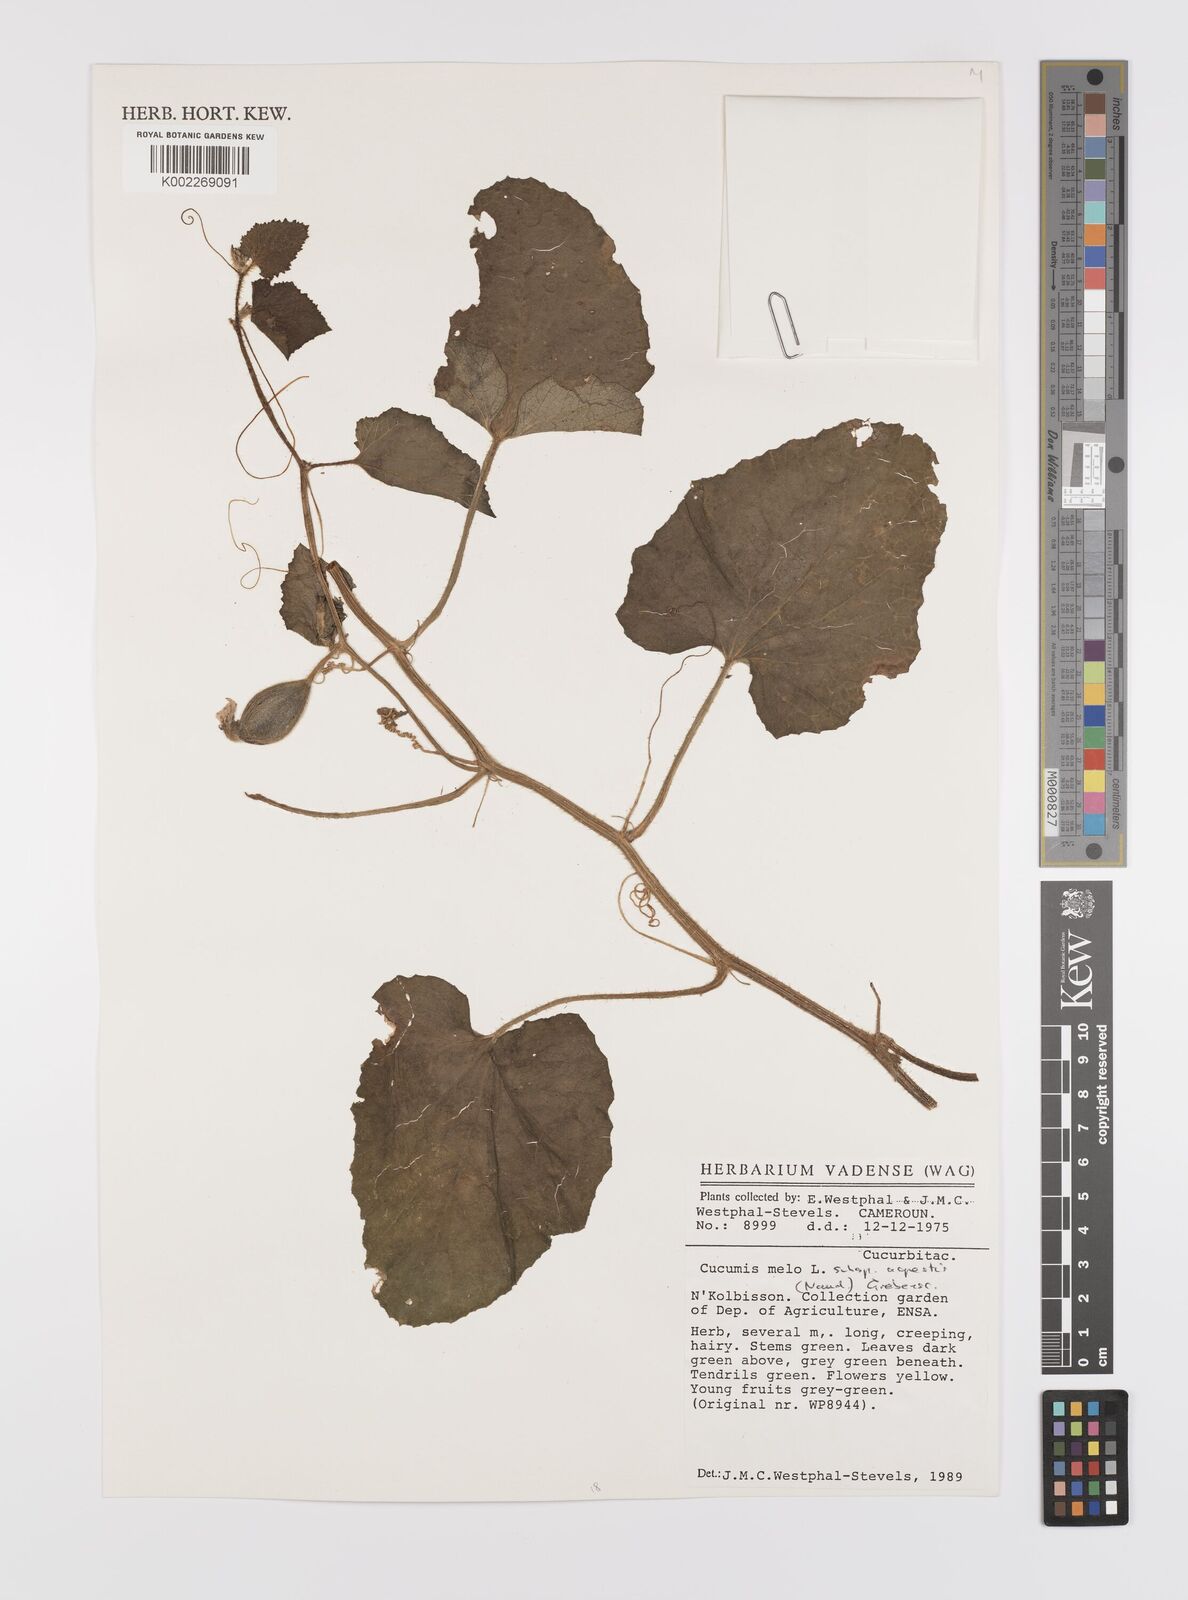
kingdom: Plantae
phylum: Tracheophyta
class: Magnoliopsida
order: Cucurbitales
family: Cucurbitaceae
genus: Cucumis
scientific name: Cucumis melo
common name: Melon
